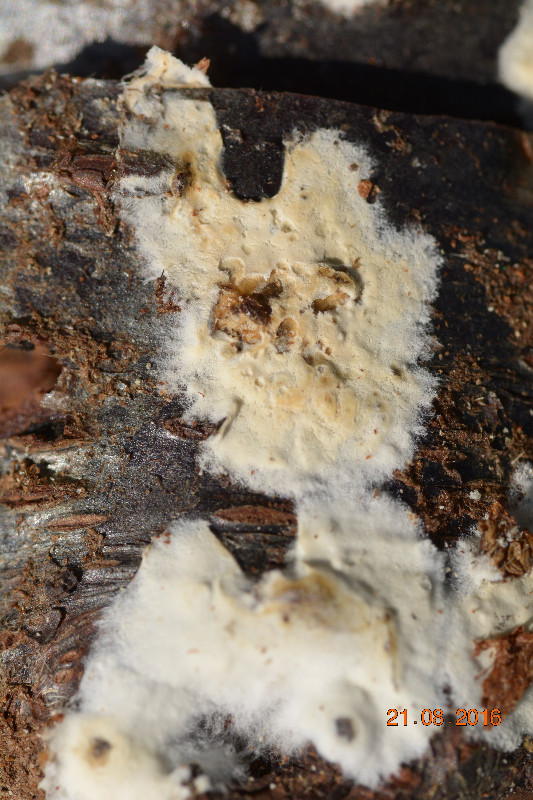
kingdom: Fungi
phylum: Basidiomycota
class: Agaricomycetes
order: Agaricales
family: Physalacriaceae
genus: Cylindrobasidium
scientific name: Cylindrobasidium evolvens
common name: sprækkehinde
